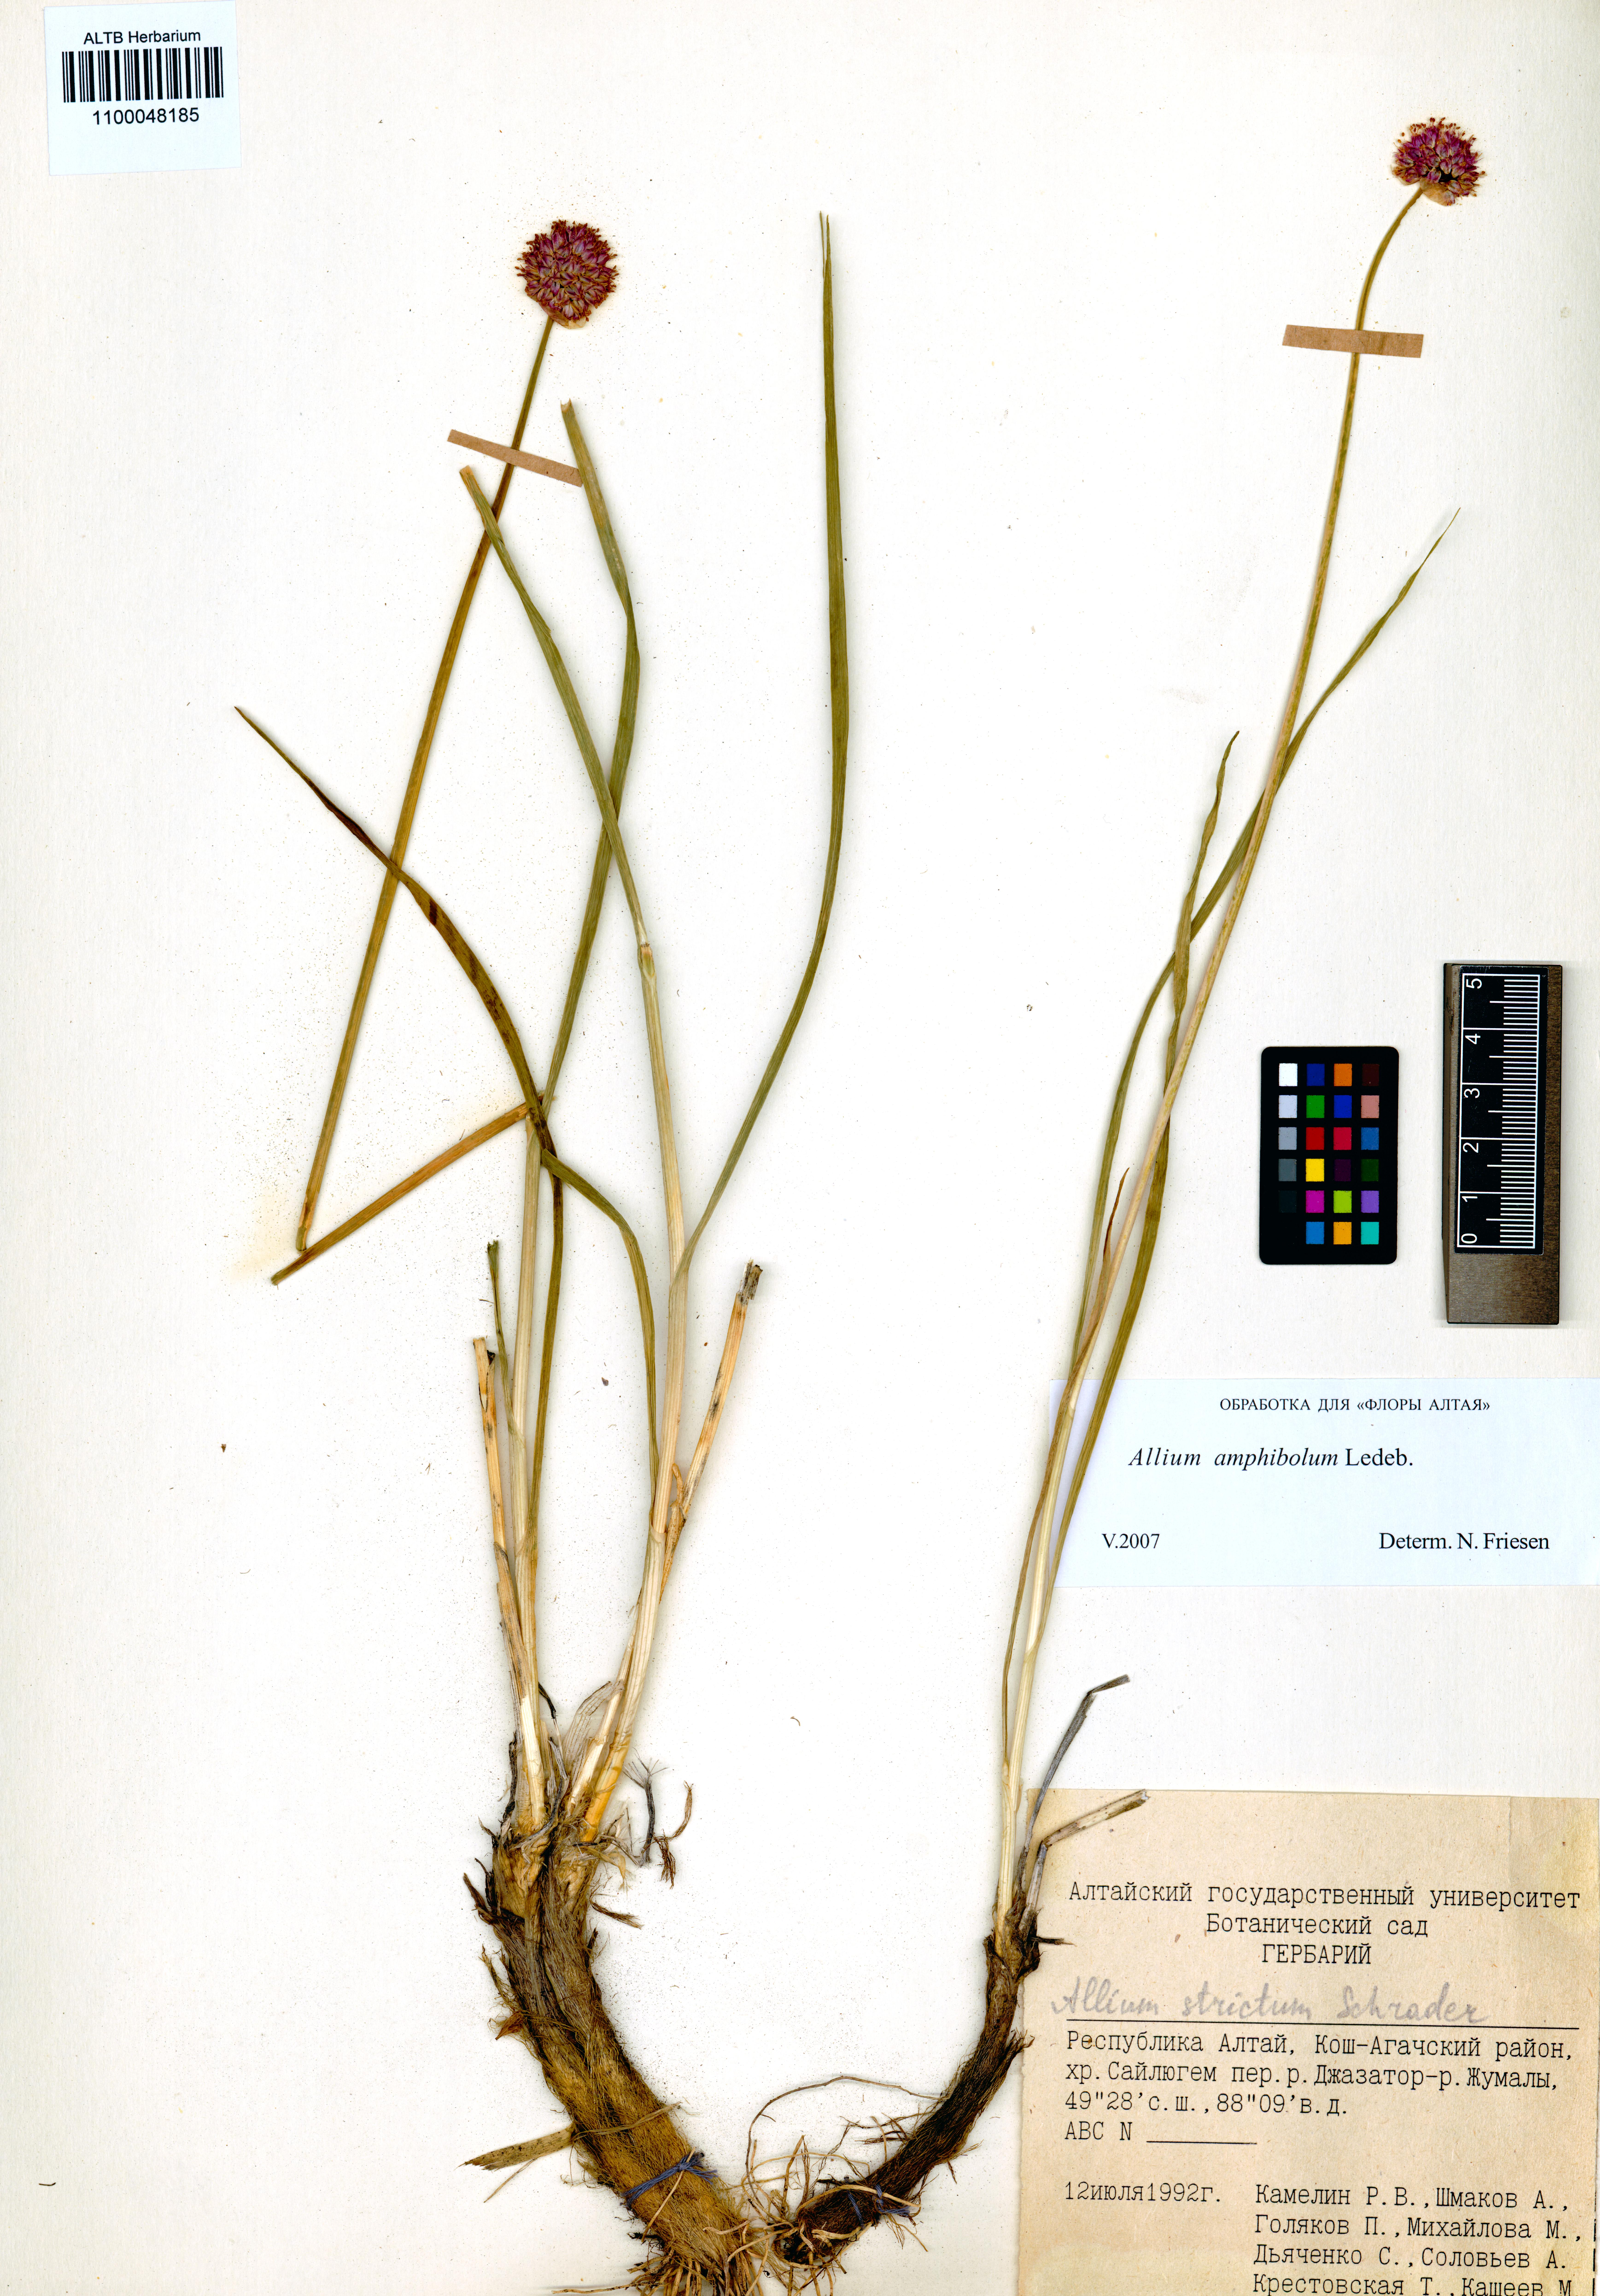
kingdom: Plantae
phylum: Tracheophyta
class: Liliopsida
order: Asparagales
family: Amaryllidaceae
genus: Allium
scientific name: Allium amphibolum
